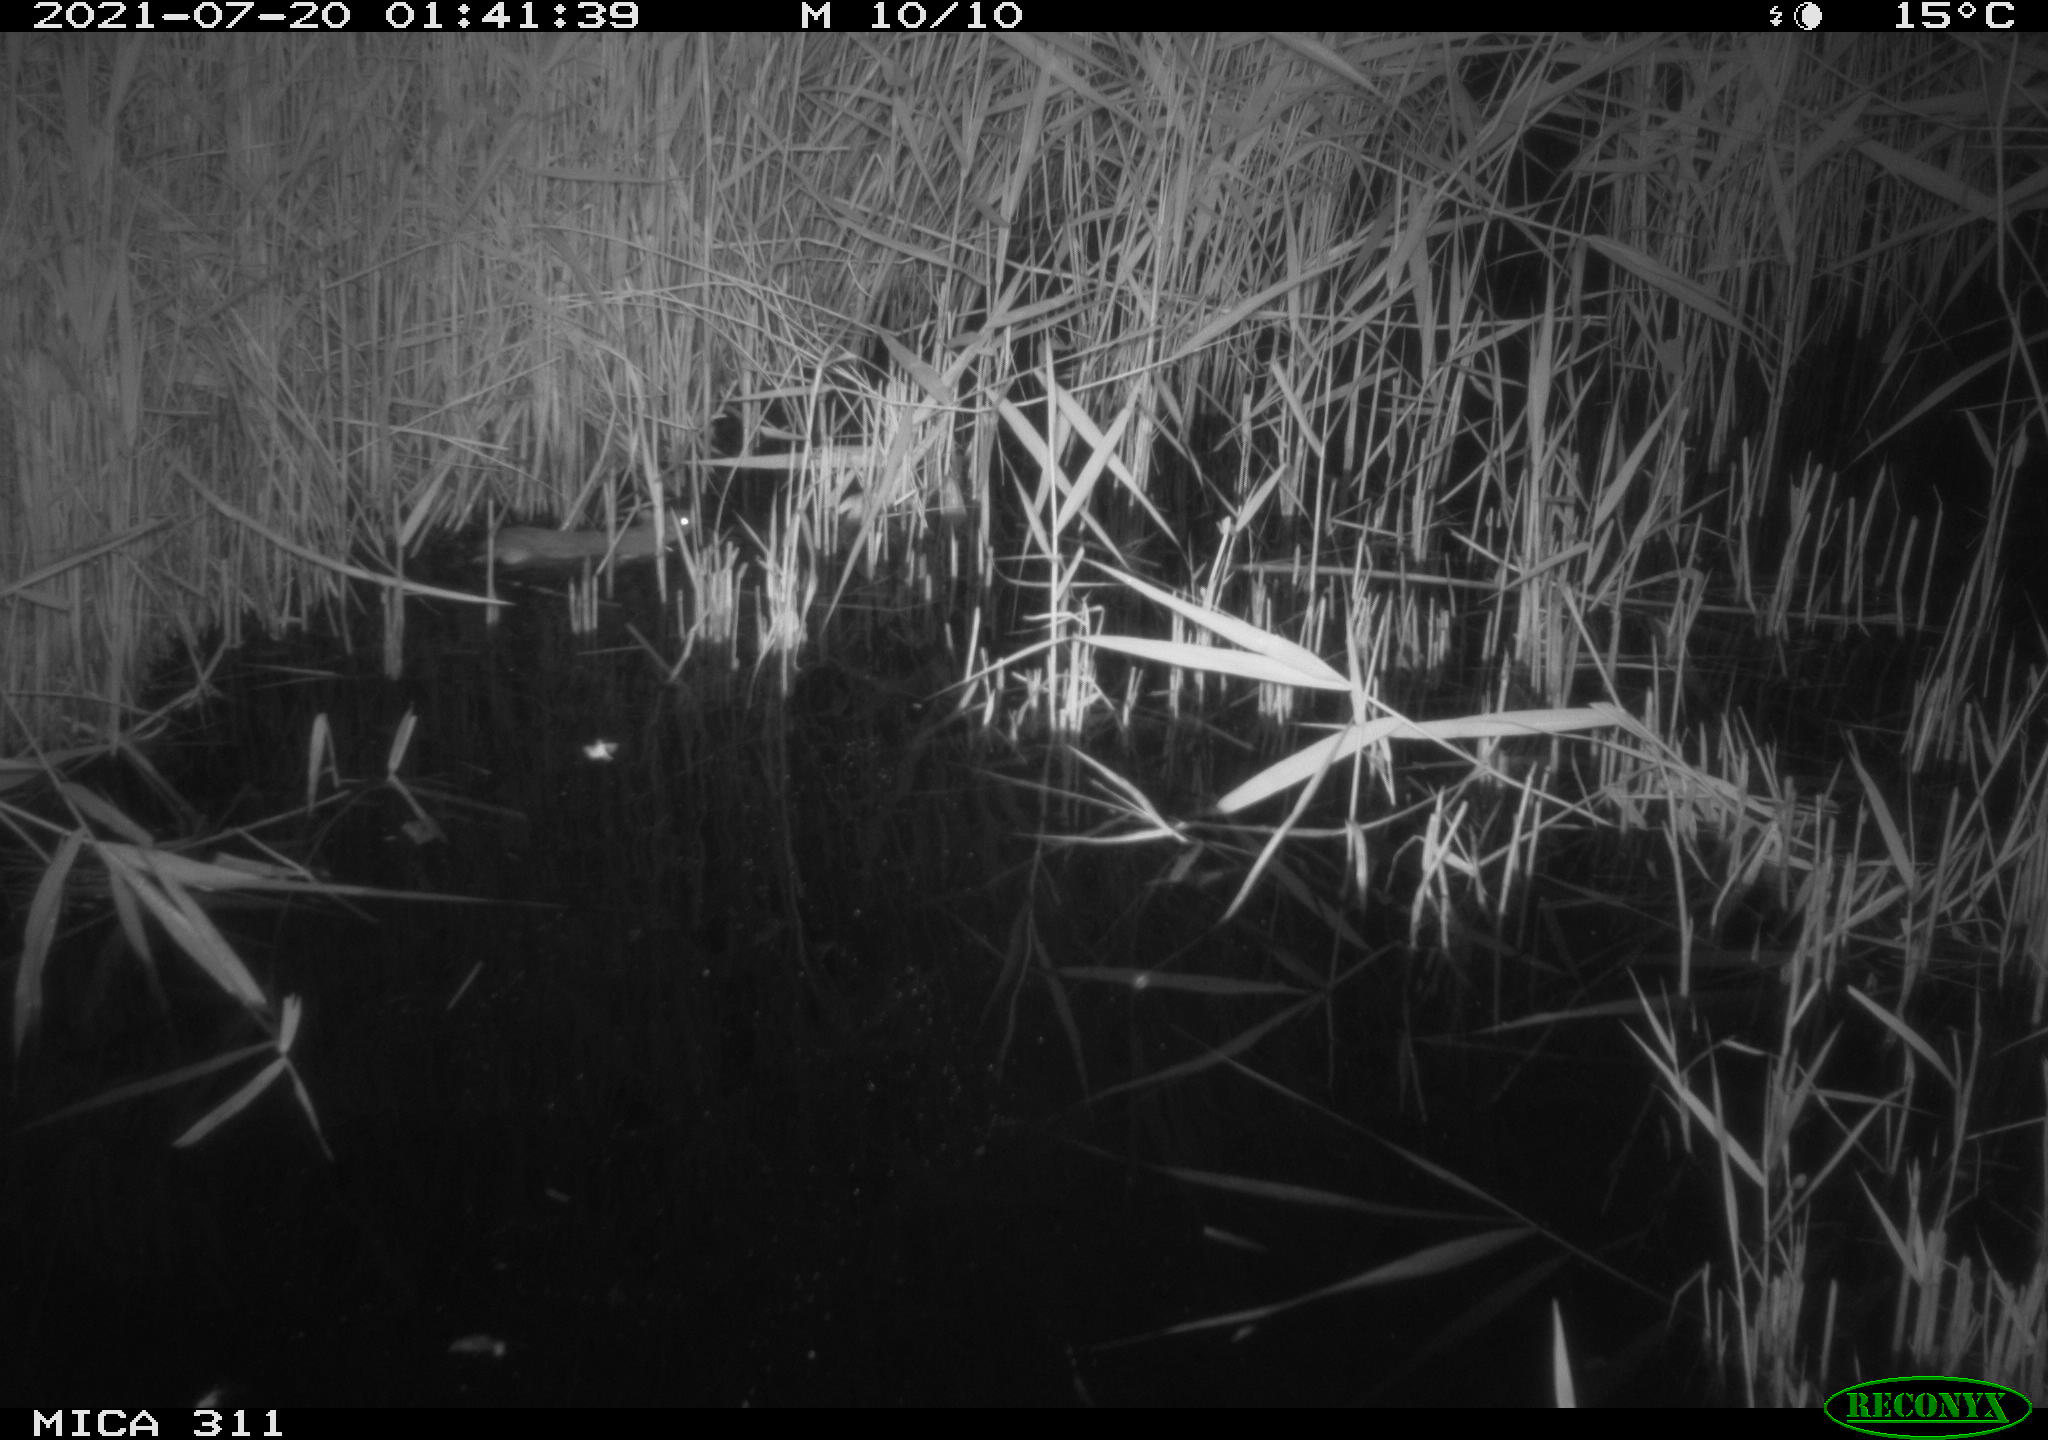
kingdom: Animalia
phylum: Chordata
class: Mammalia
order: Rodentia
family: Muridae
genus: Rattus
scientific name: Rattus norvegicus
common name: Brown rat
